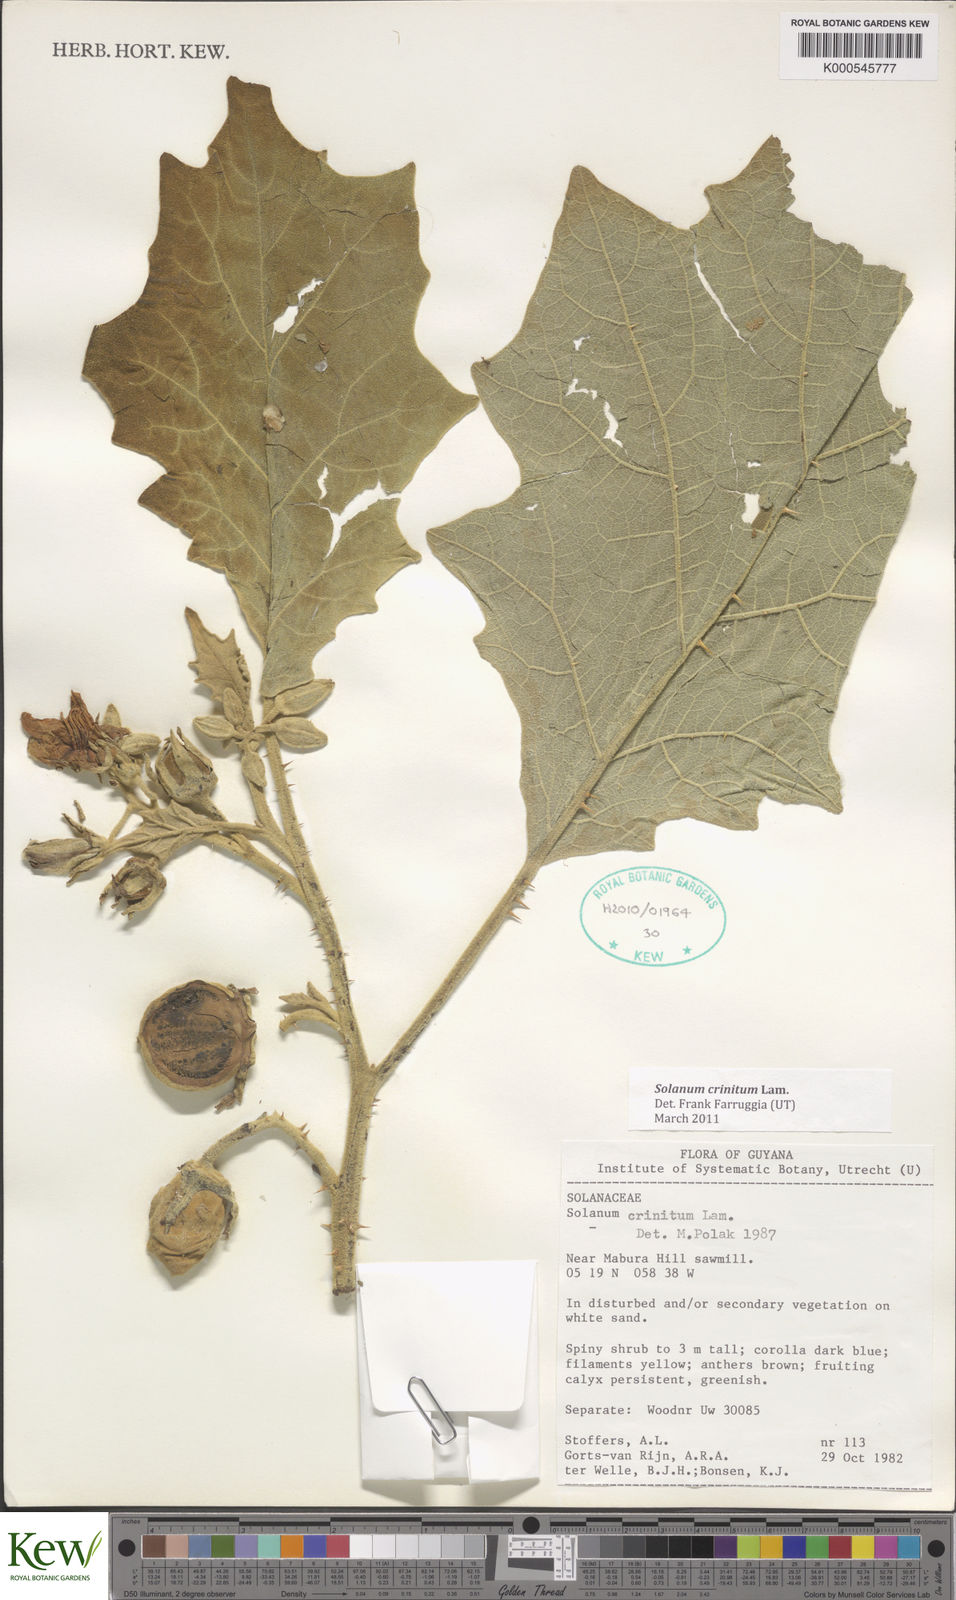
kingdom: Plantae
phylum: Tracheophyta
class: Magnoliopsida
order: Solanales
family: Solanaceae
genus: Solanum
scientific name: Solanum crinitum
